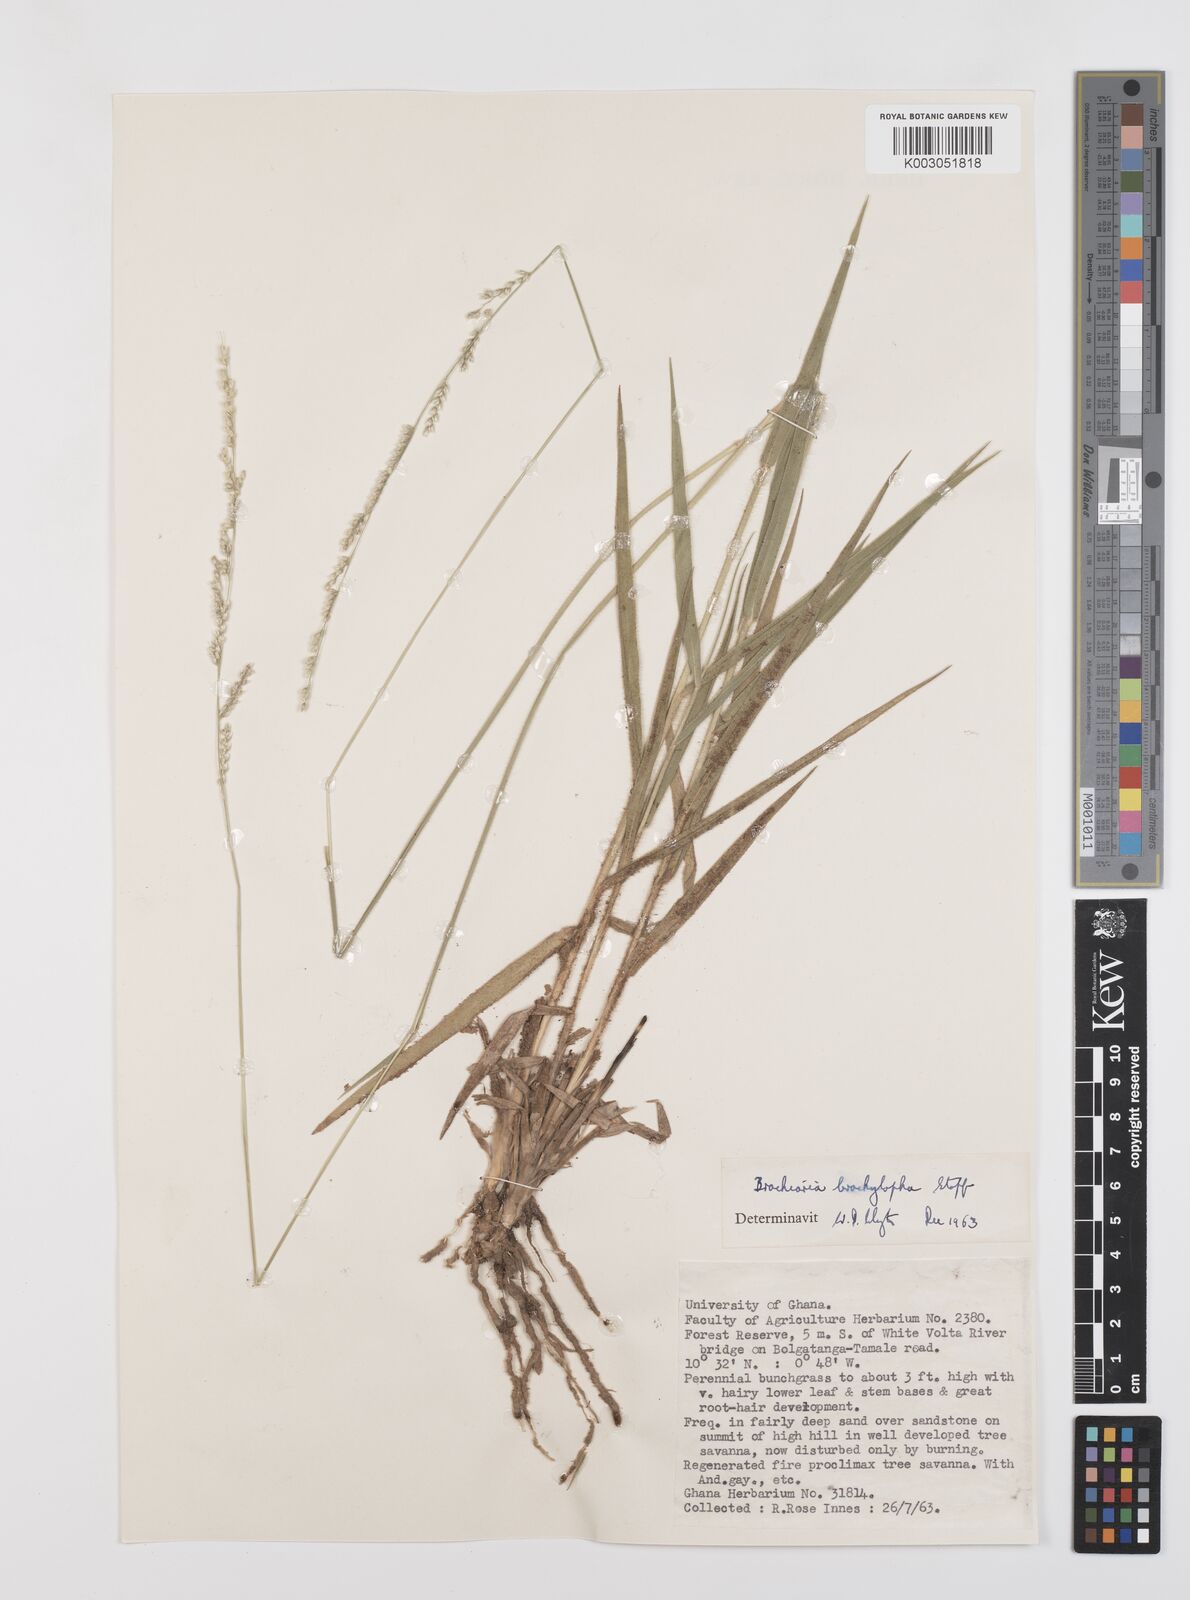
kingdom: Plantae
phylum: Tracheophyta
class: Liliopsida
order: Poales
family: Poaceae
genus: Urochloa
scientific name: Urochloa serrata
